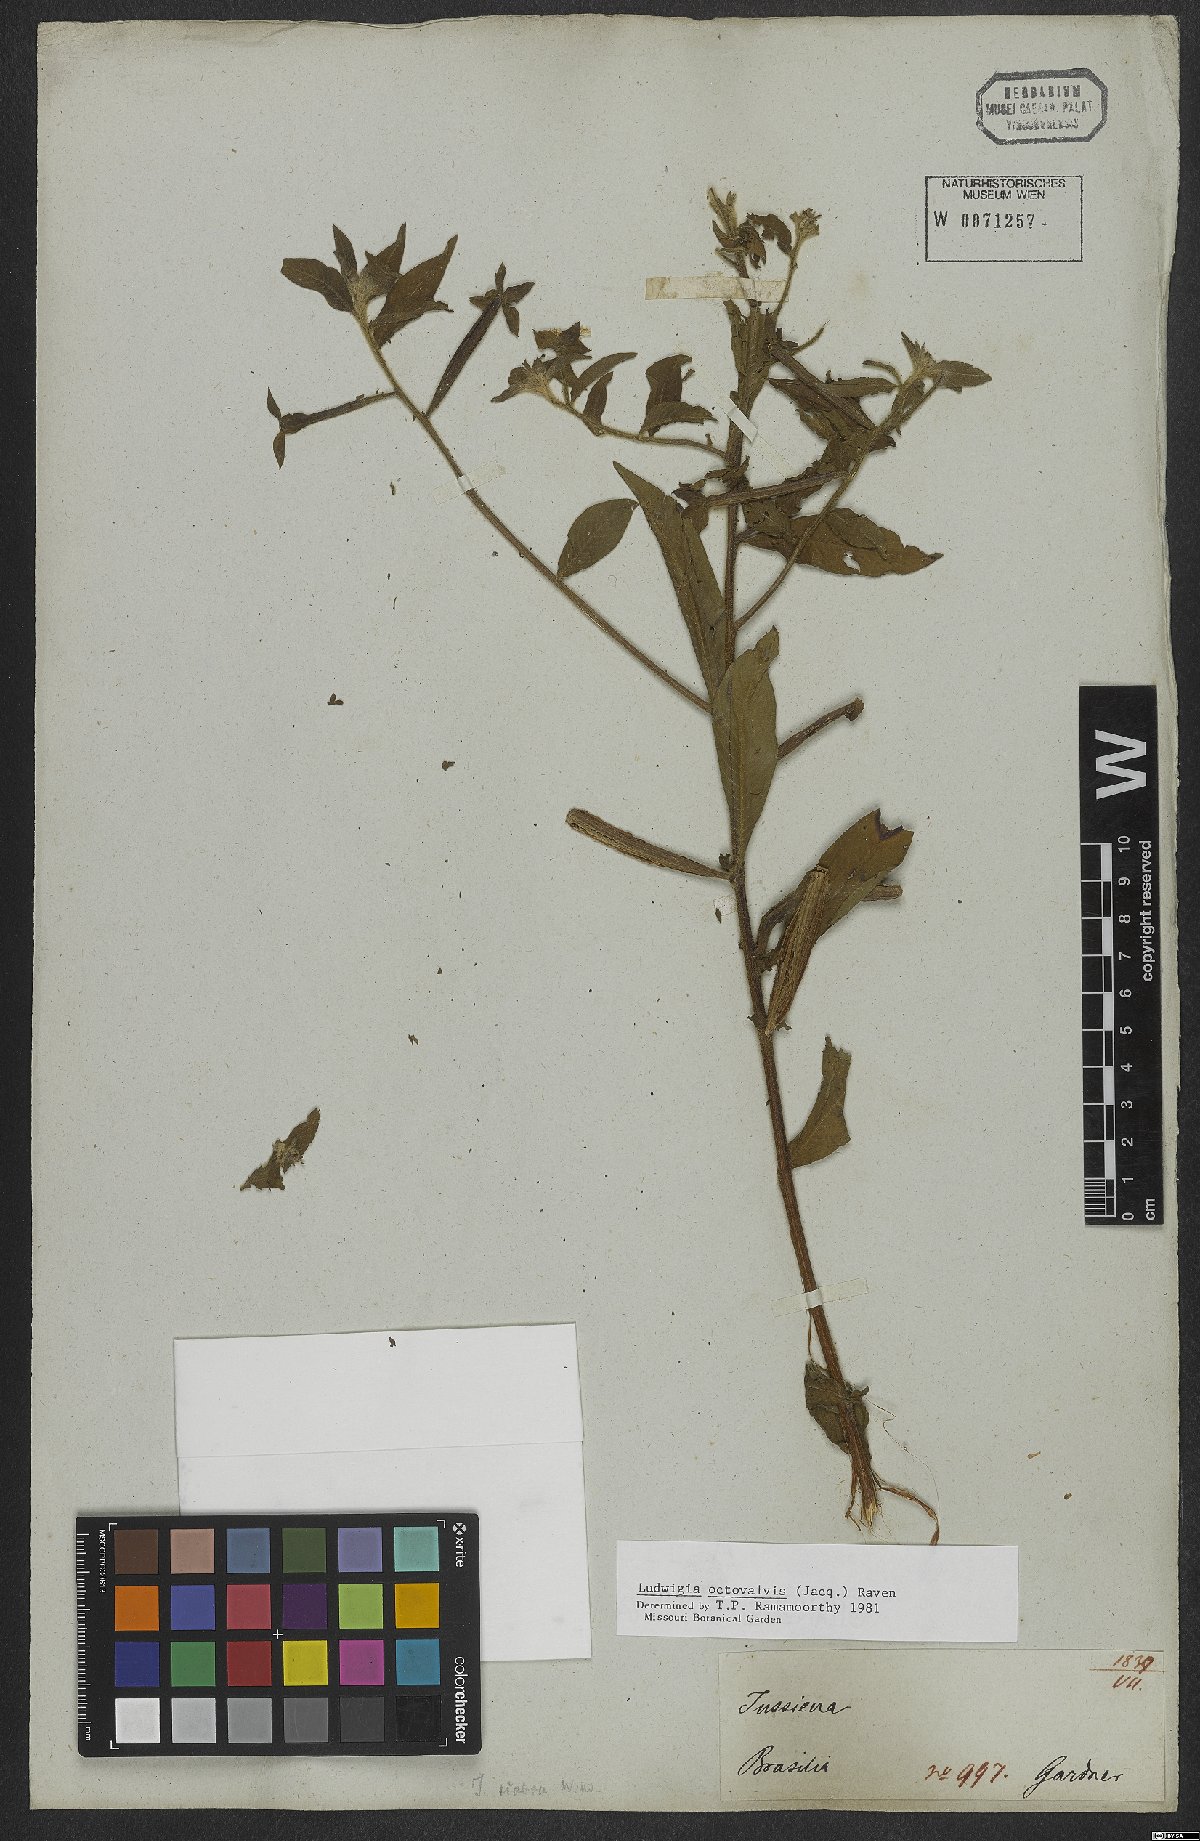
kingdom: Plantae
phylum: Tracheophyta
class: Magnoliopsida
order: Myrtales
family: Onagraceae
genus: Ludwigia
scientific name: Ludwigia octovalvis
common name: Water-primrose
